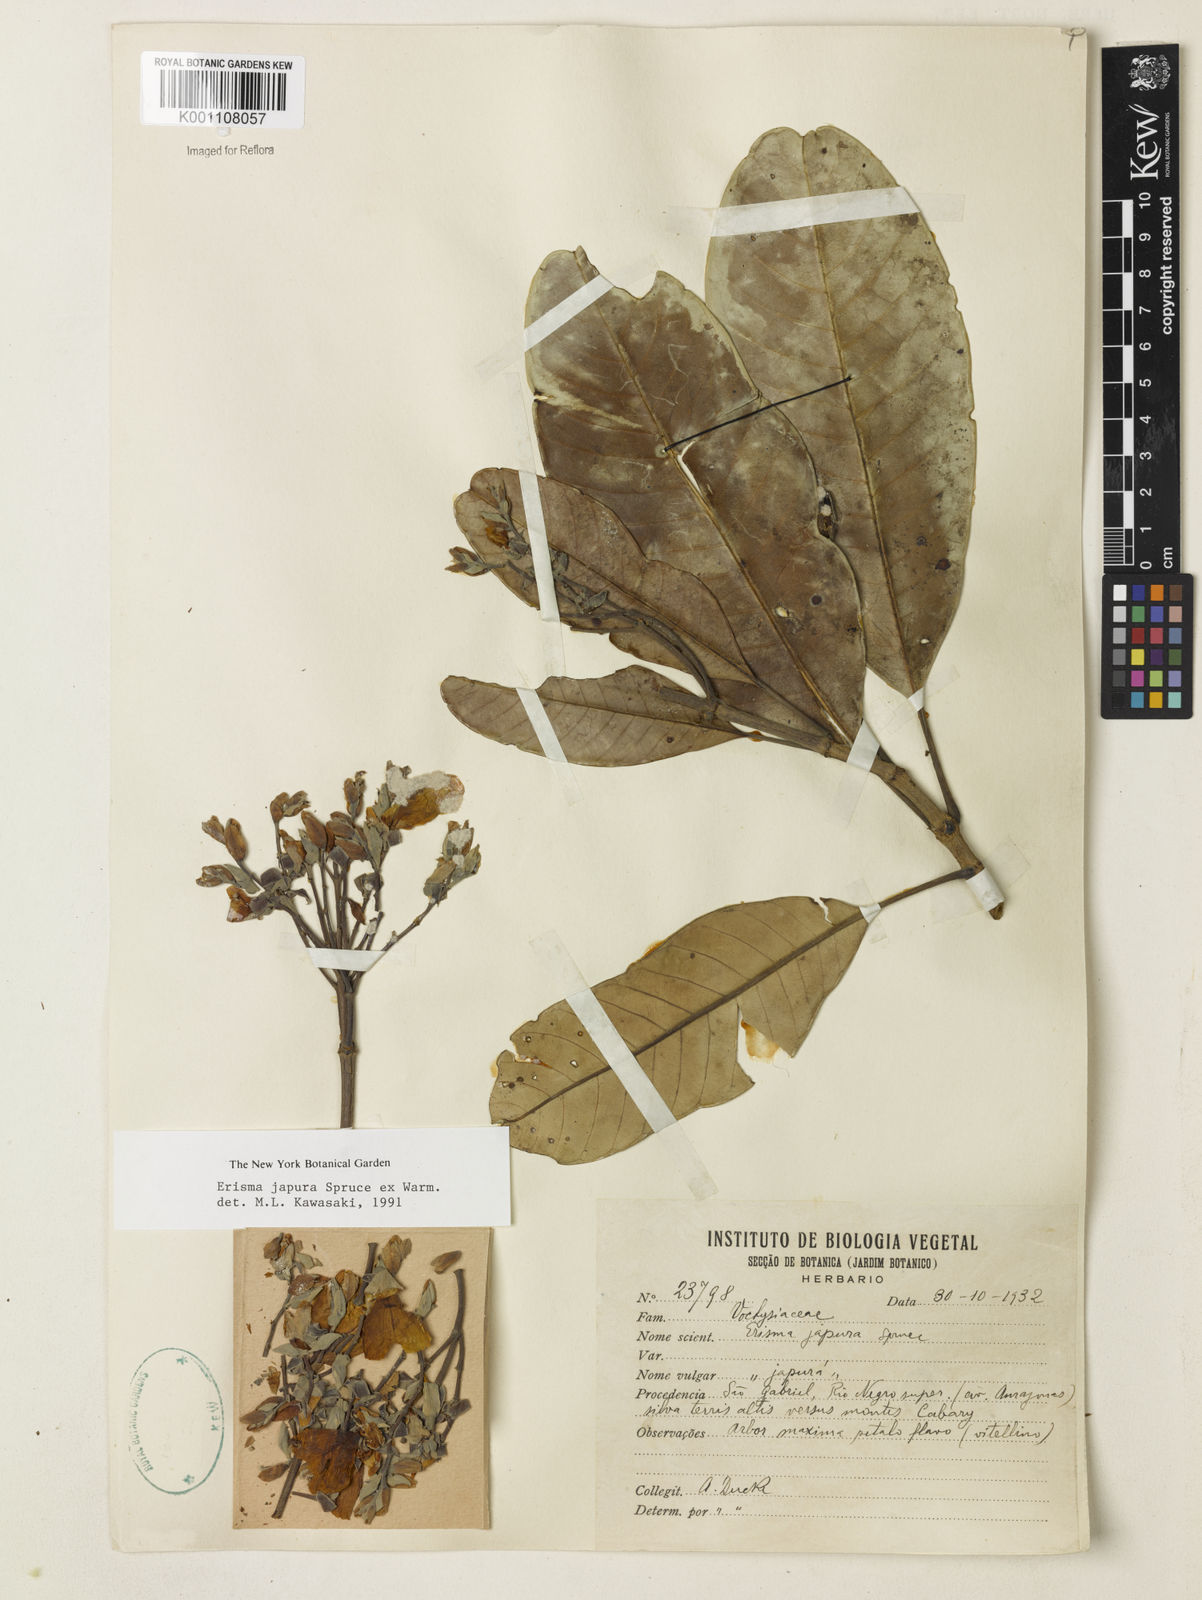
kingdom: Plantae
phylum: Tracheophyta
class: Magnoliopsida
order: Myrtales
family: Vochysiaceae
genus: Erisma
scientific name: Erisma japura
